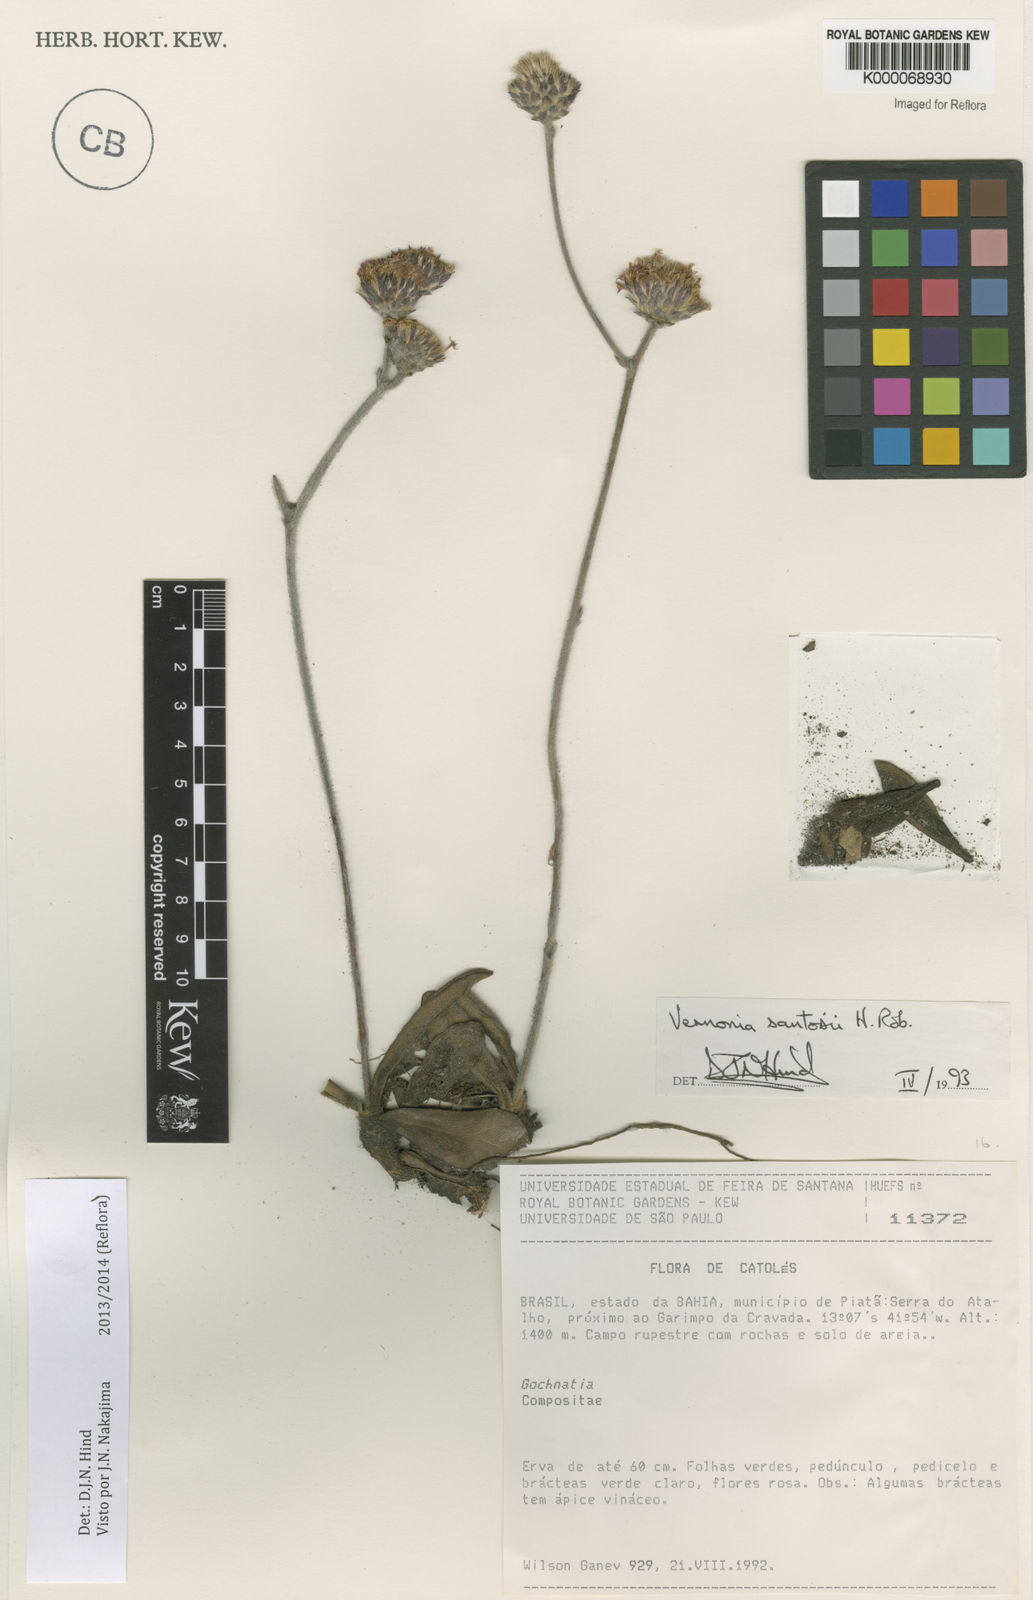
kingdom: Plantae
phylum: Tracheophyta
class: Magnoliopsida
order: Asterales
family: Asteraceae
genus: Lessingianthus
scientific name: Lessingianthus santosii
